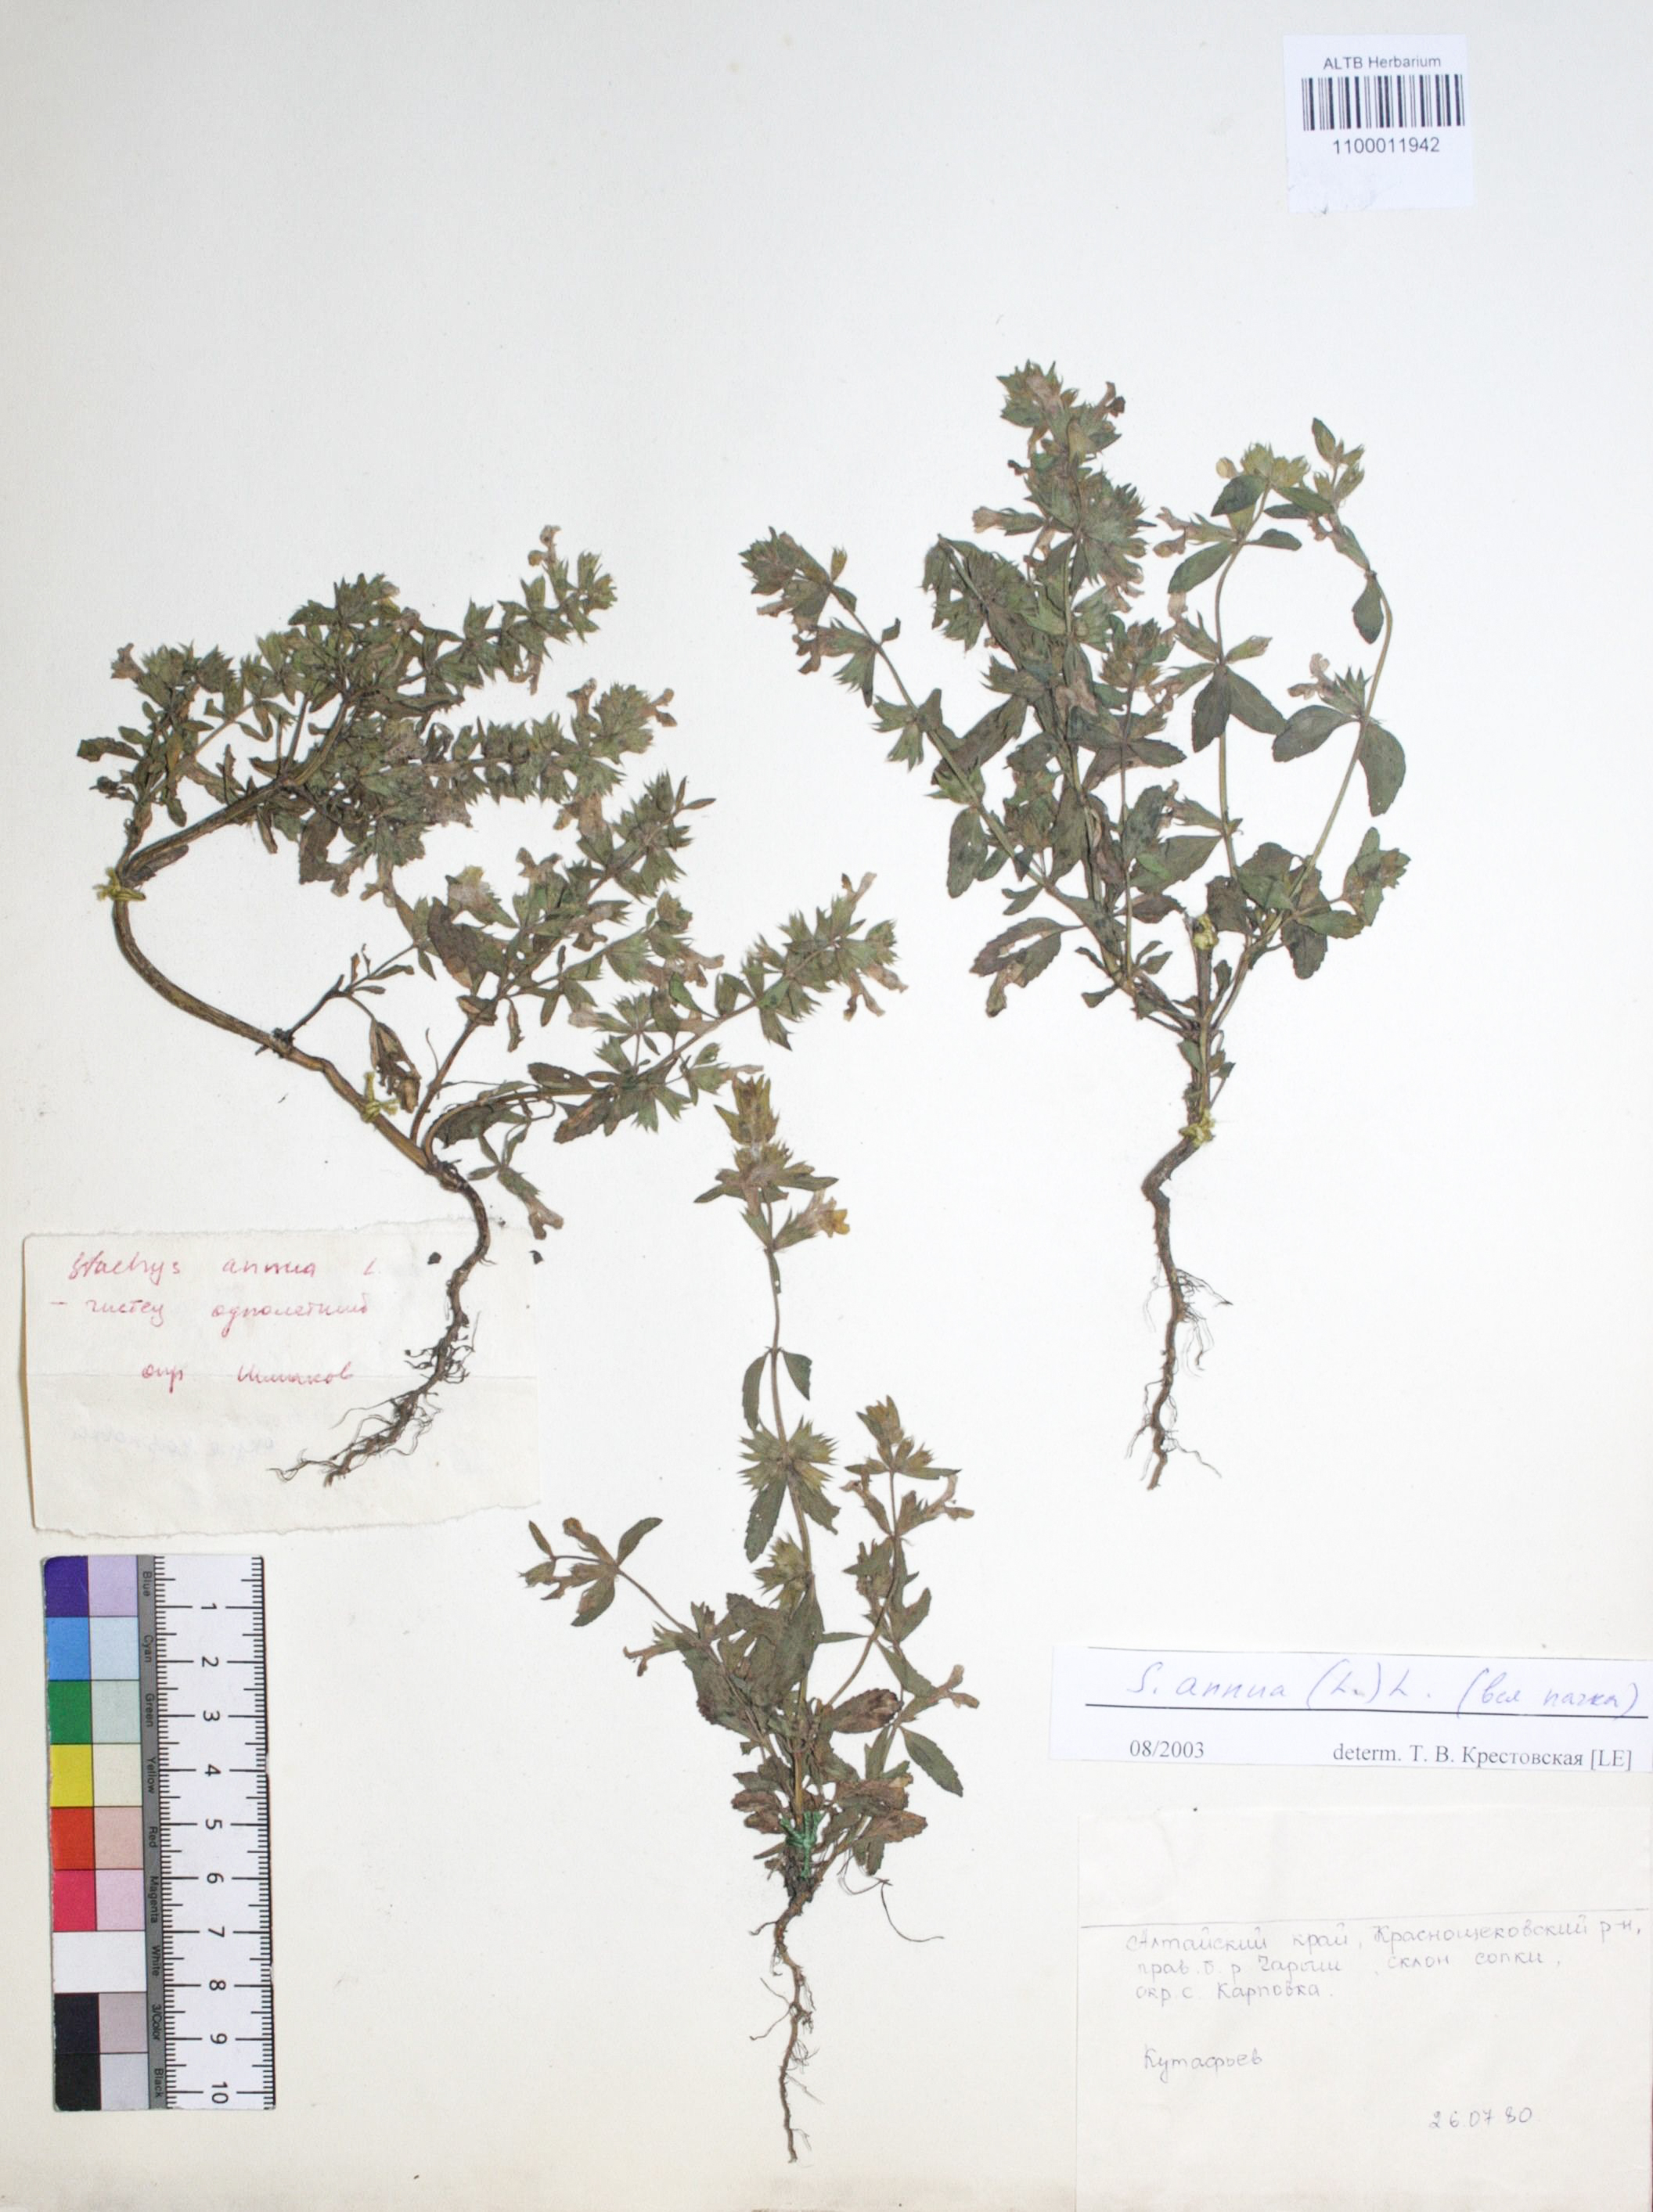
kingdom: Plantae
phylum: Tracheophyta
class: Magnoliopsida
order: Lamiales
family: Lamiaceae
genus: Stachys
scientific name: Stachys annua
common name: Annual yellow-woundwort
